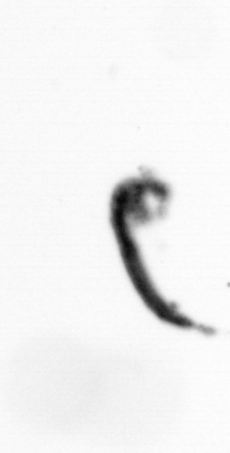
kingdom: Animalia
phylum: Arthropoda
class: Copepoda
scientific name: Copepoda
